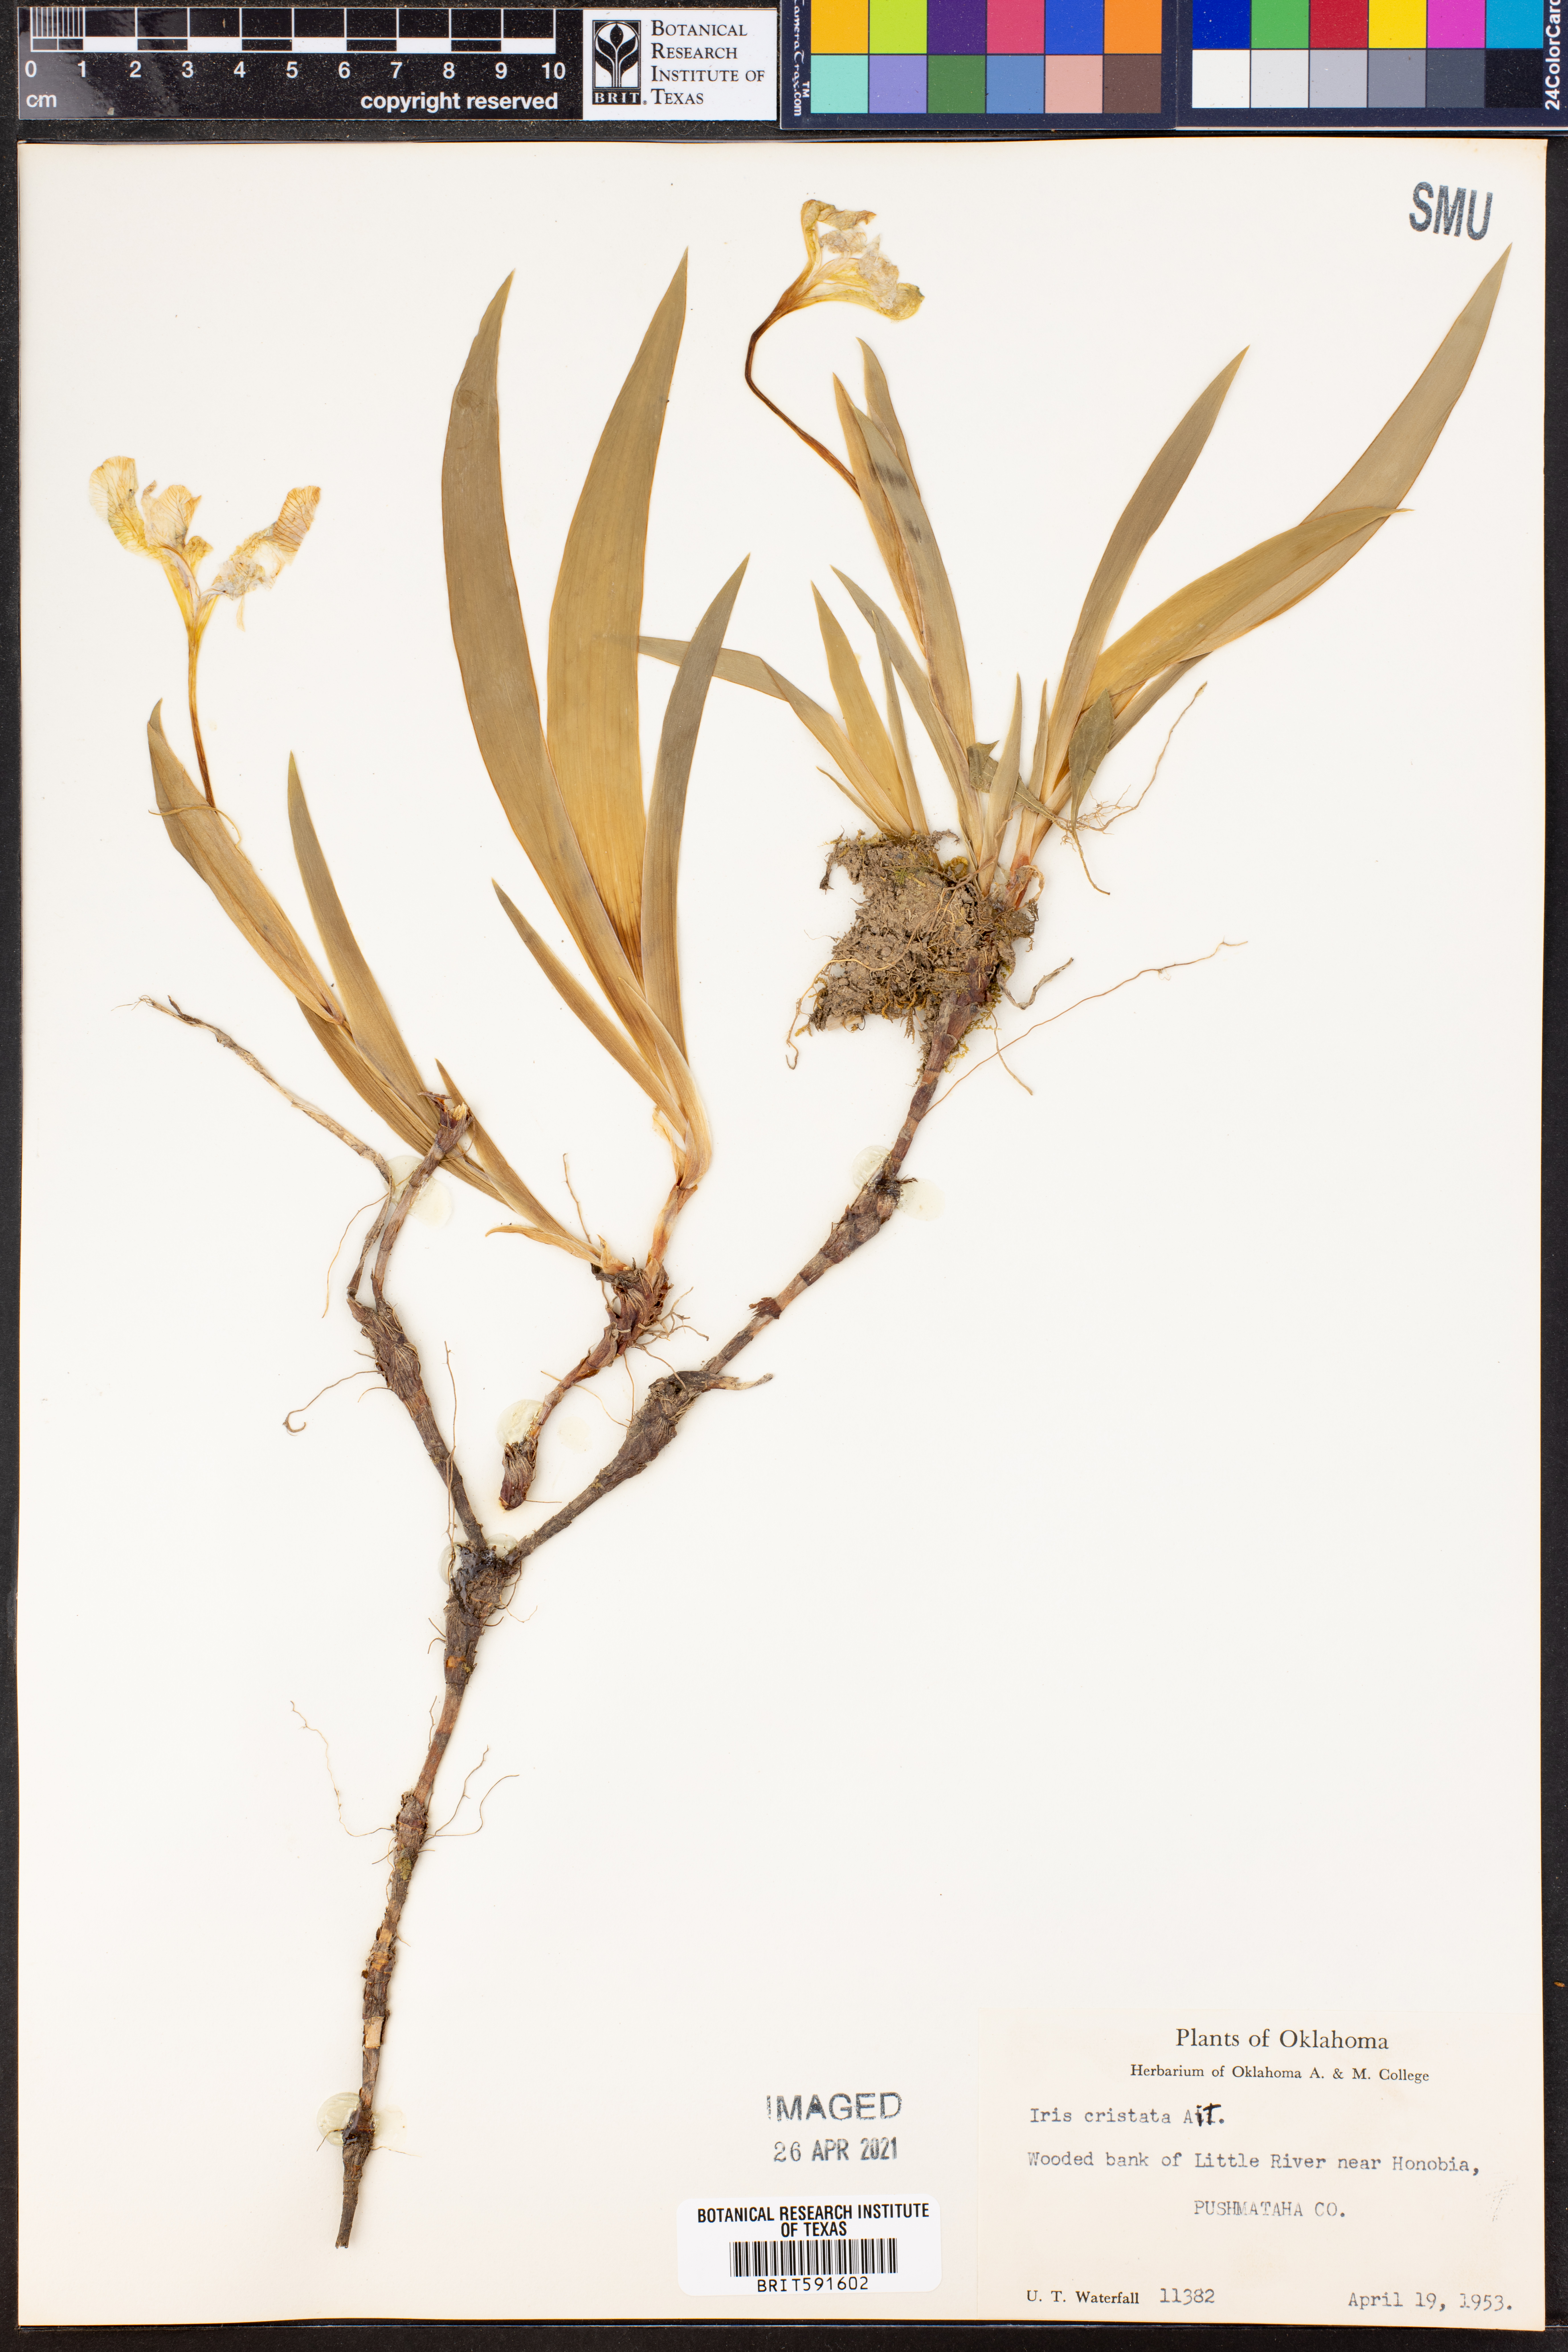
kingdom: Plantae
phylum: Tracheophyta
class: Liliopsida
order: Asparagales
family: Iridaceae
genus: Iris
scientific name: Iris cristata
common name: Crested iris
